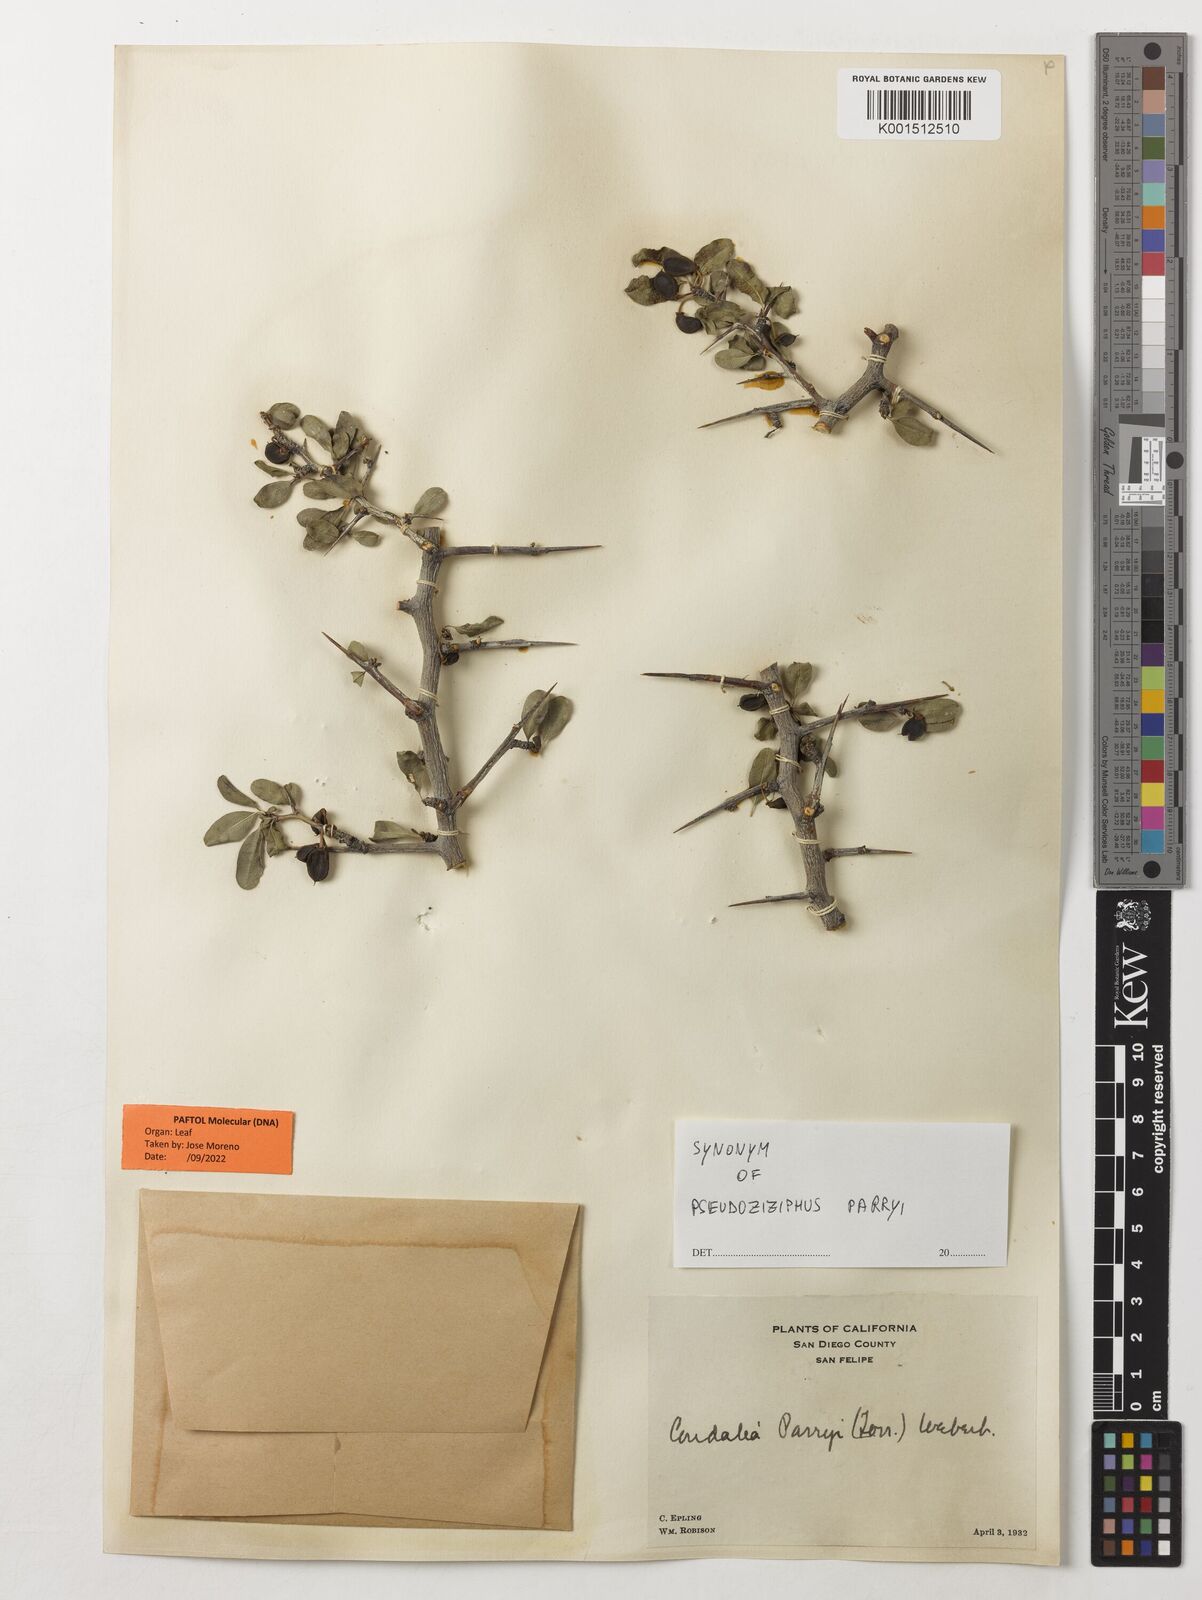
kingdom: Plantae
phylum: Tracheophyta
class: Magnoliopsida
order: Rosales
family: Rhamnaceae
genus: Pseudoziziphus
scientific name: Pseudoziziphus parryi
